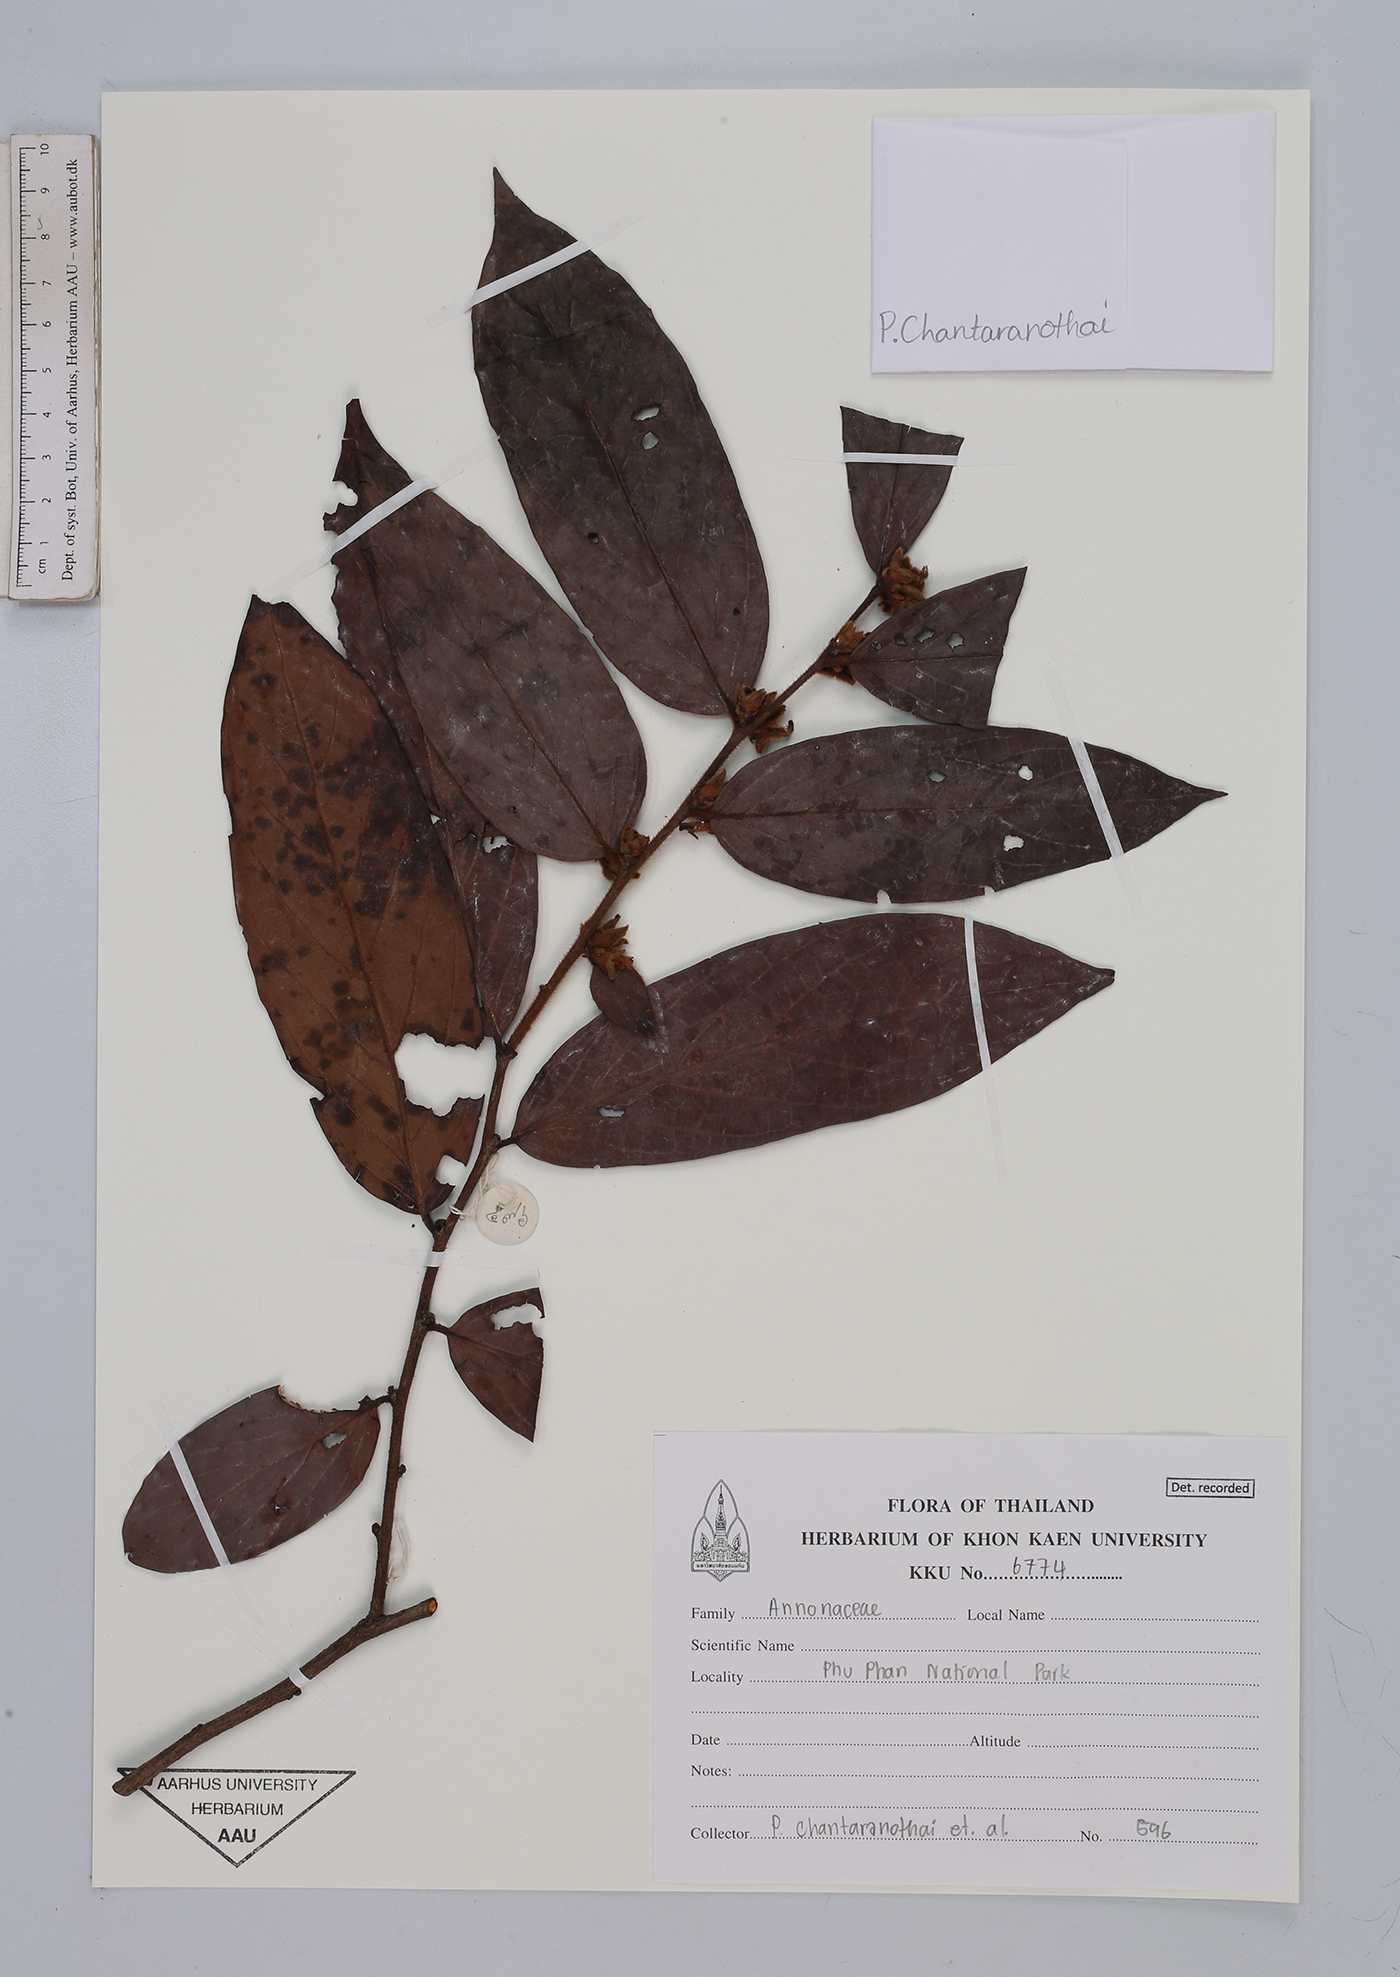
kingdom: Plantae
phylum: Tracheophyta
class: Magnoliopsida
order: Magnoliales
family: Annonaceae
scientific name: Annonaceae
